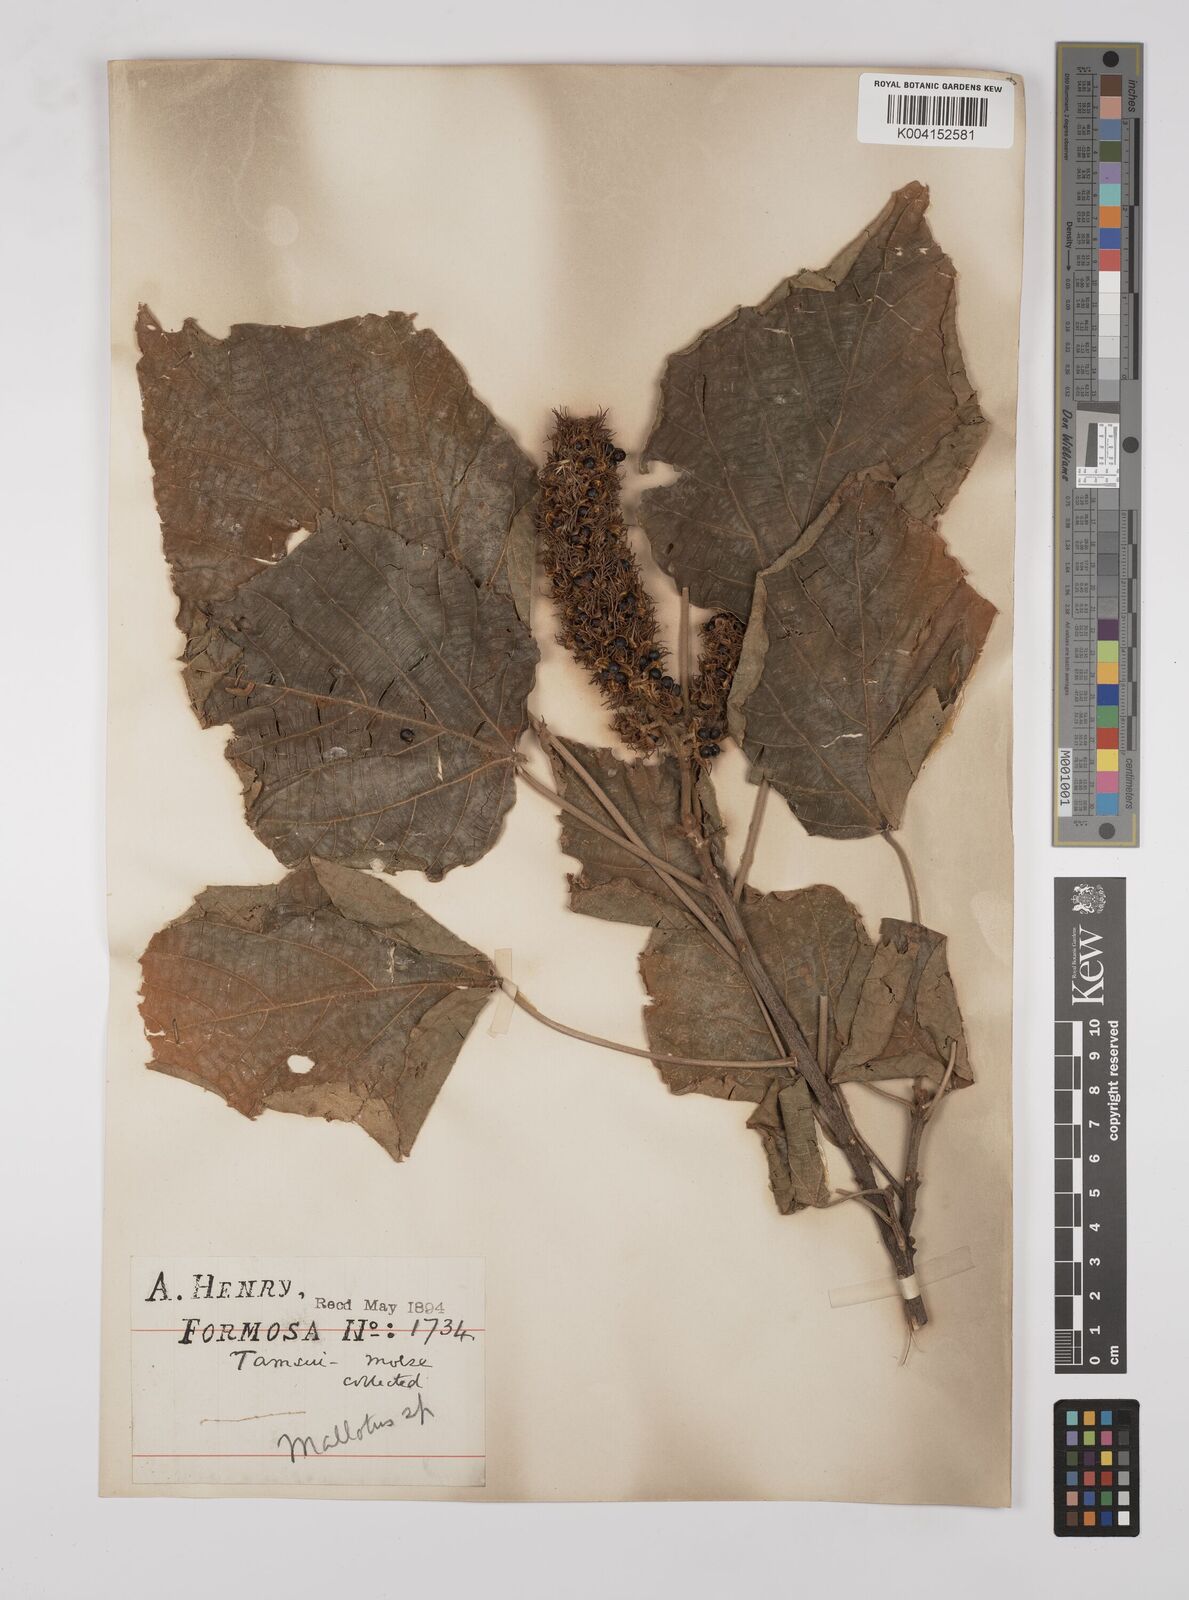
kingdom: Plantae
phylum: Tracheophyta
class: Magnoliopsida
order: Malpighiales
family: Euphorbiaceae
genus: Mallotus
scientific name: Mallotus japonicus
